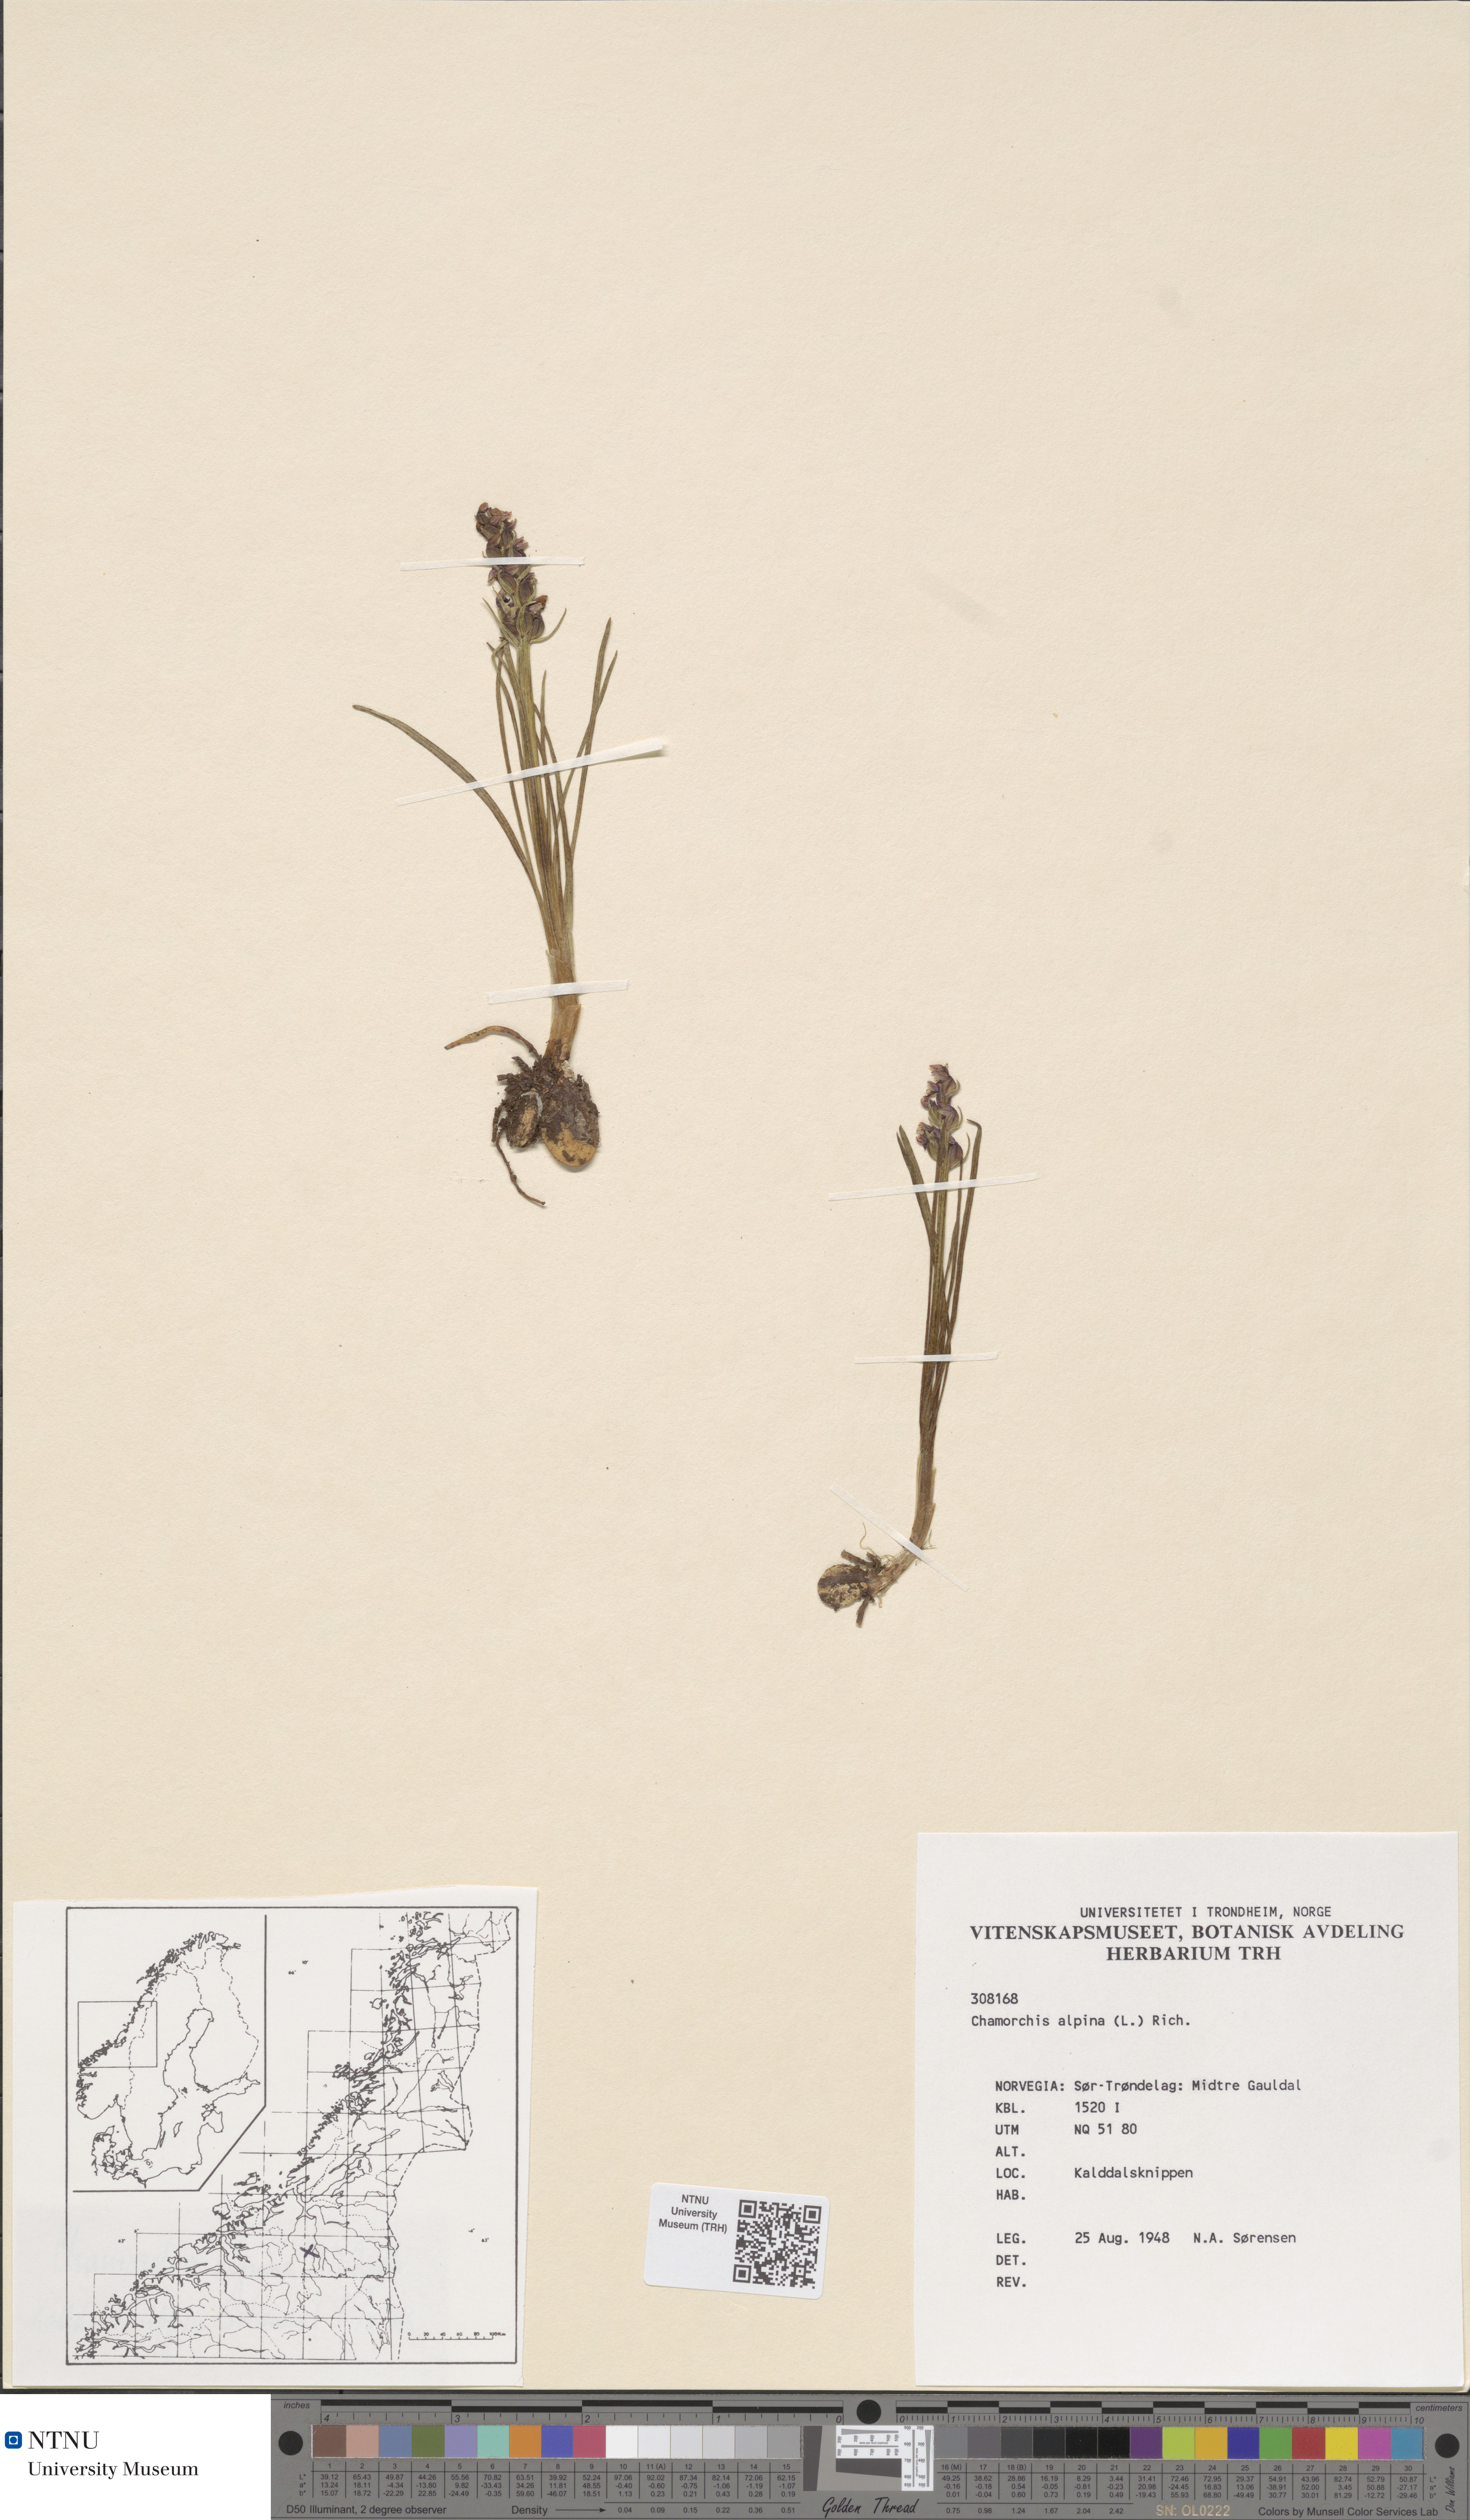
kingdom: Plantae
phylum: Tracheophyta
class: Liliopsida
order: Asparagales
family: Orchidaceae
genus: Chamorchis
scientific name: Chamorchis alpina
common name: Alpine chamorchis
